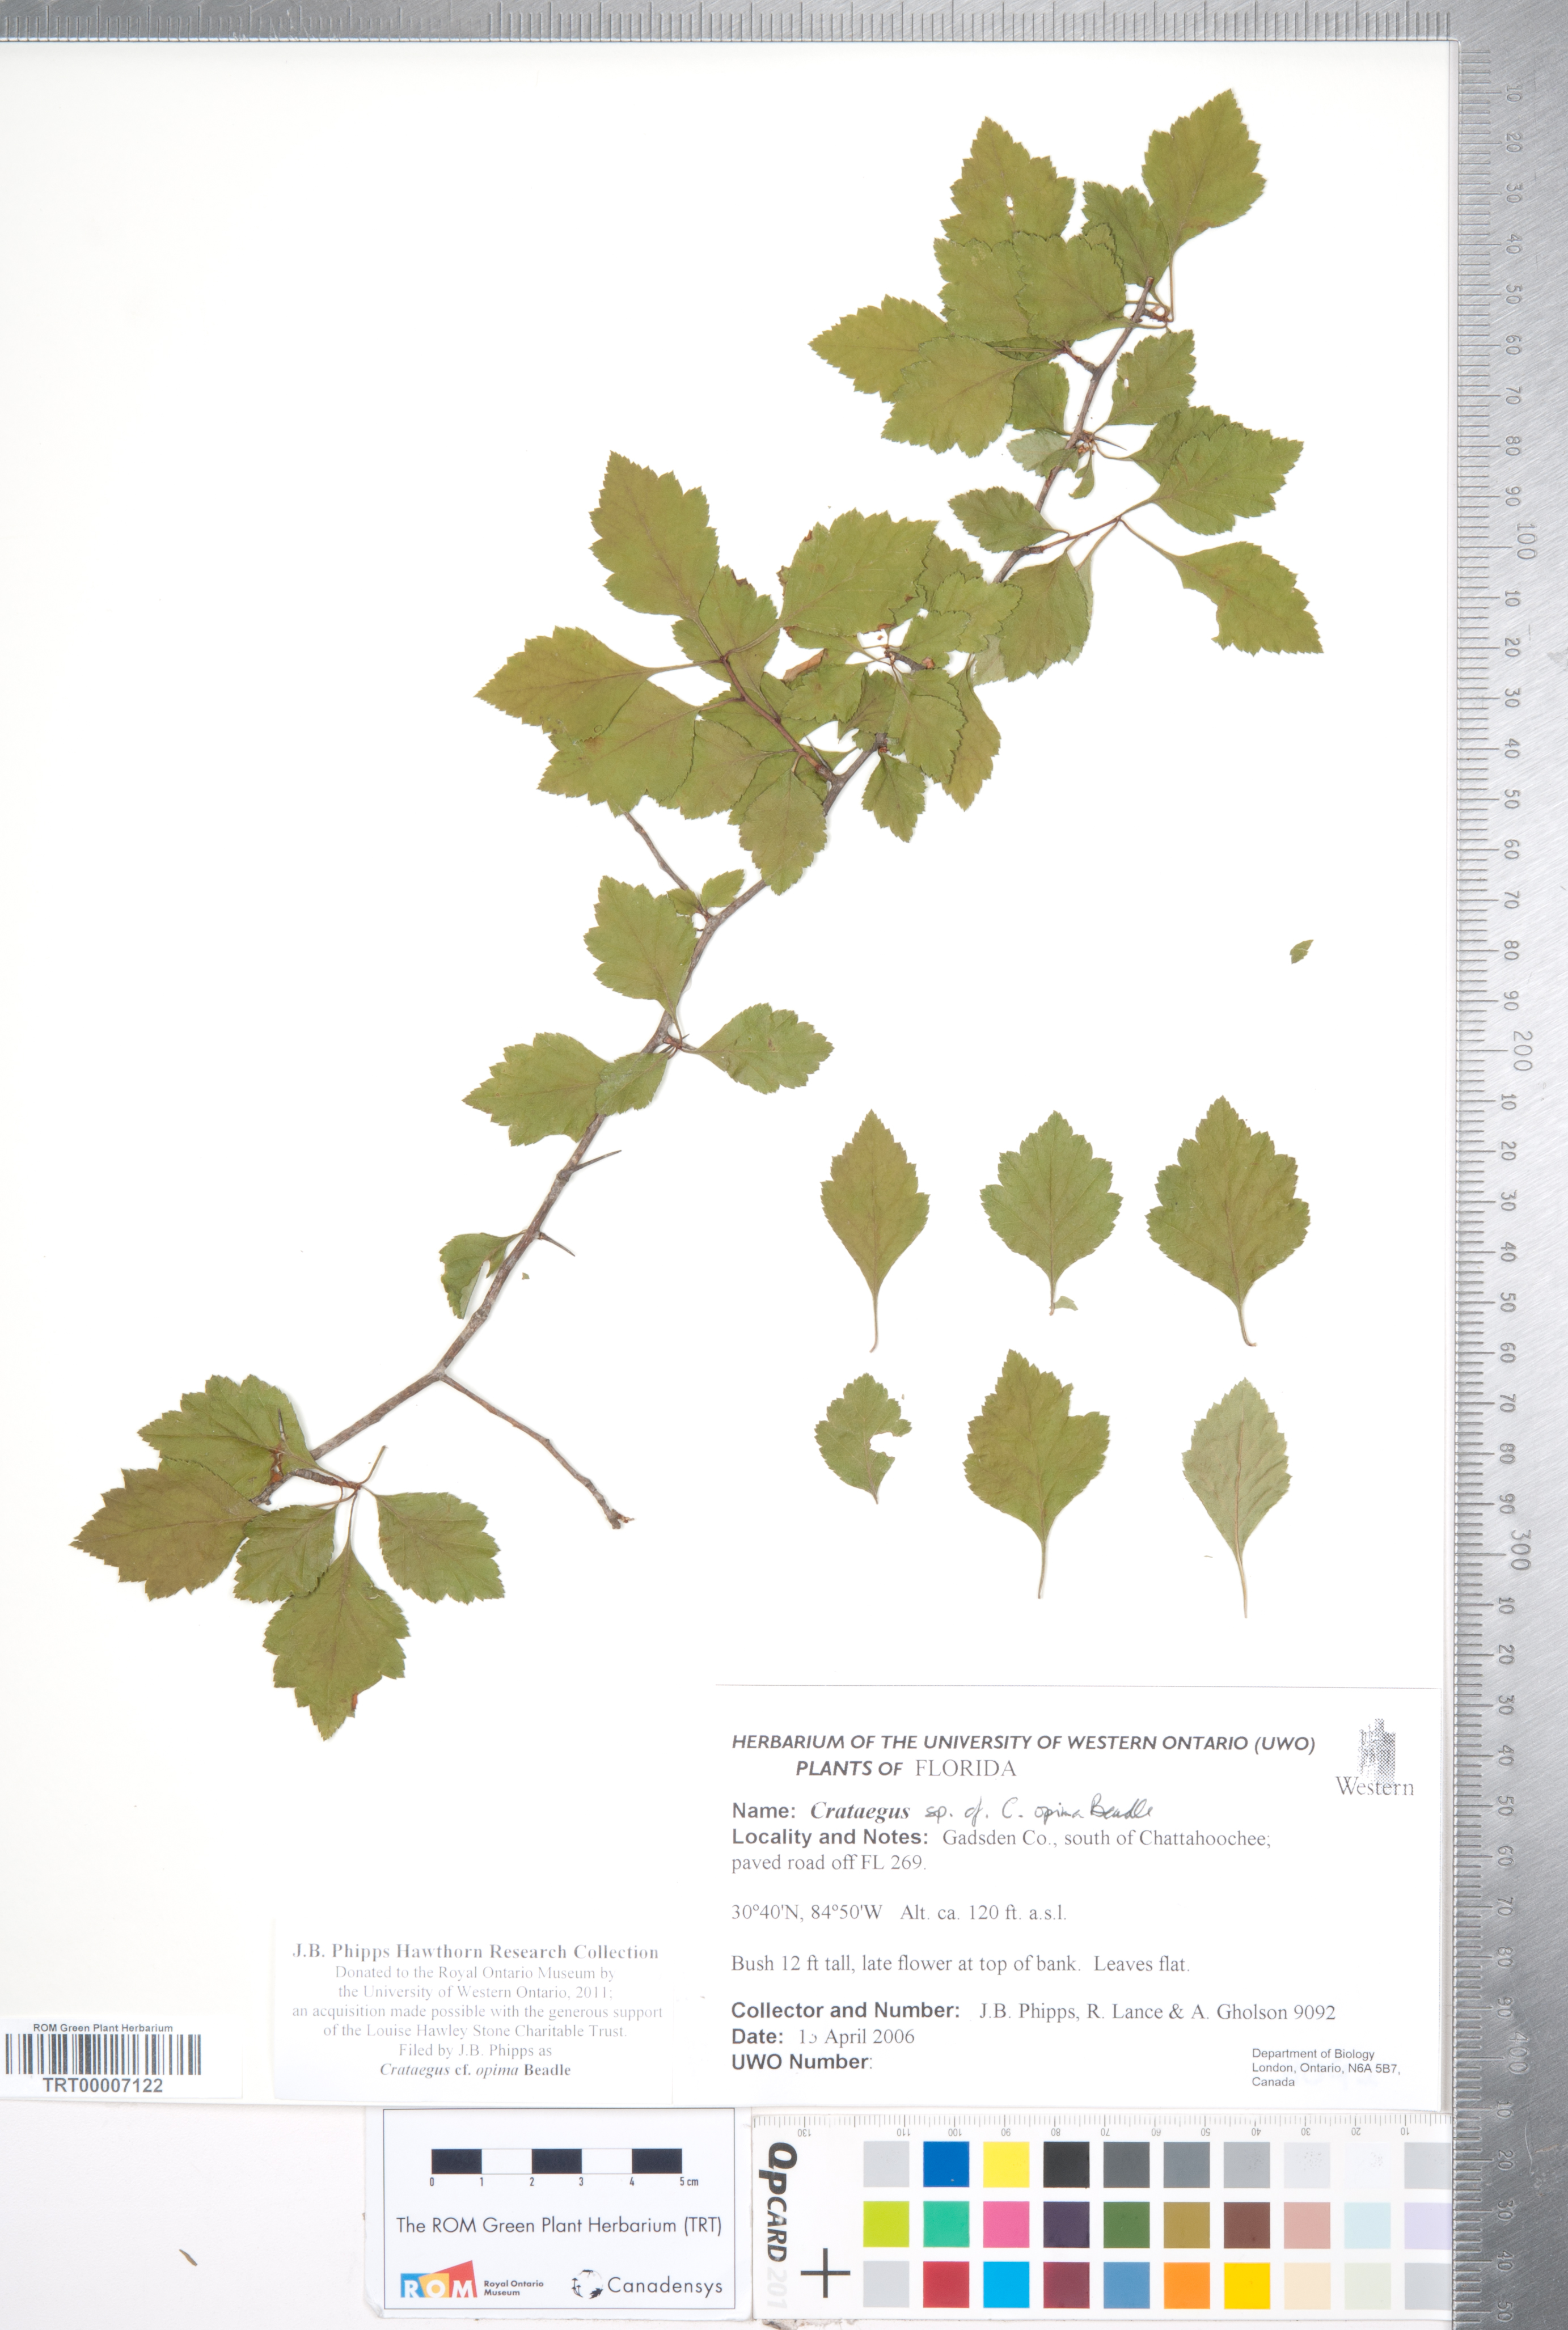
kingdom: Plantae
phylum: Tracheophyta
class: Magnoliopsida
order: Rosales
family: Rosaceae
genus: Crataegus
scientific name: Crataegus pulcherrima
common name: Beautiful hawthorn
